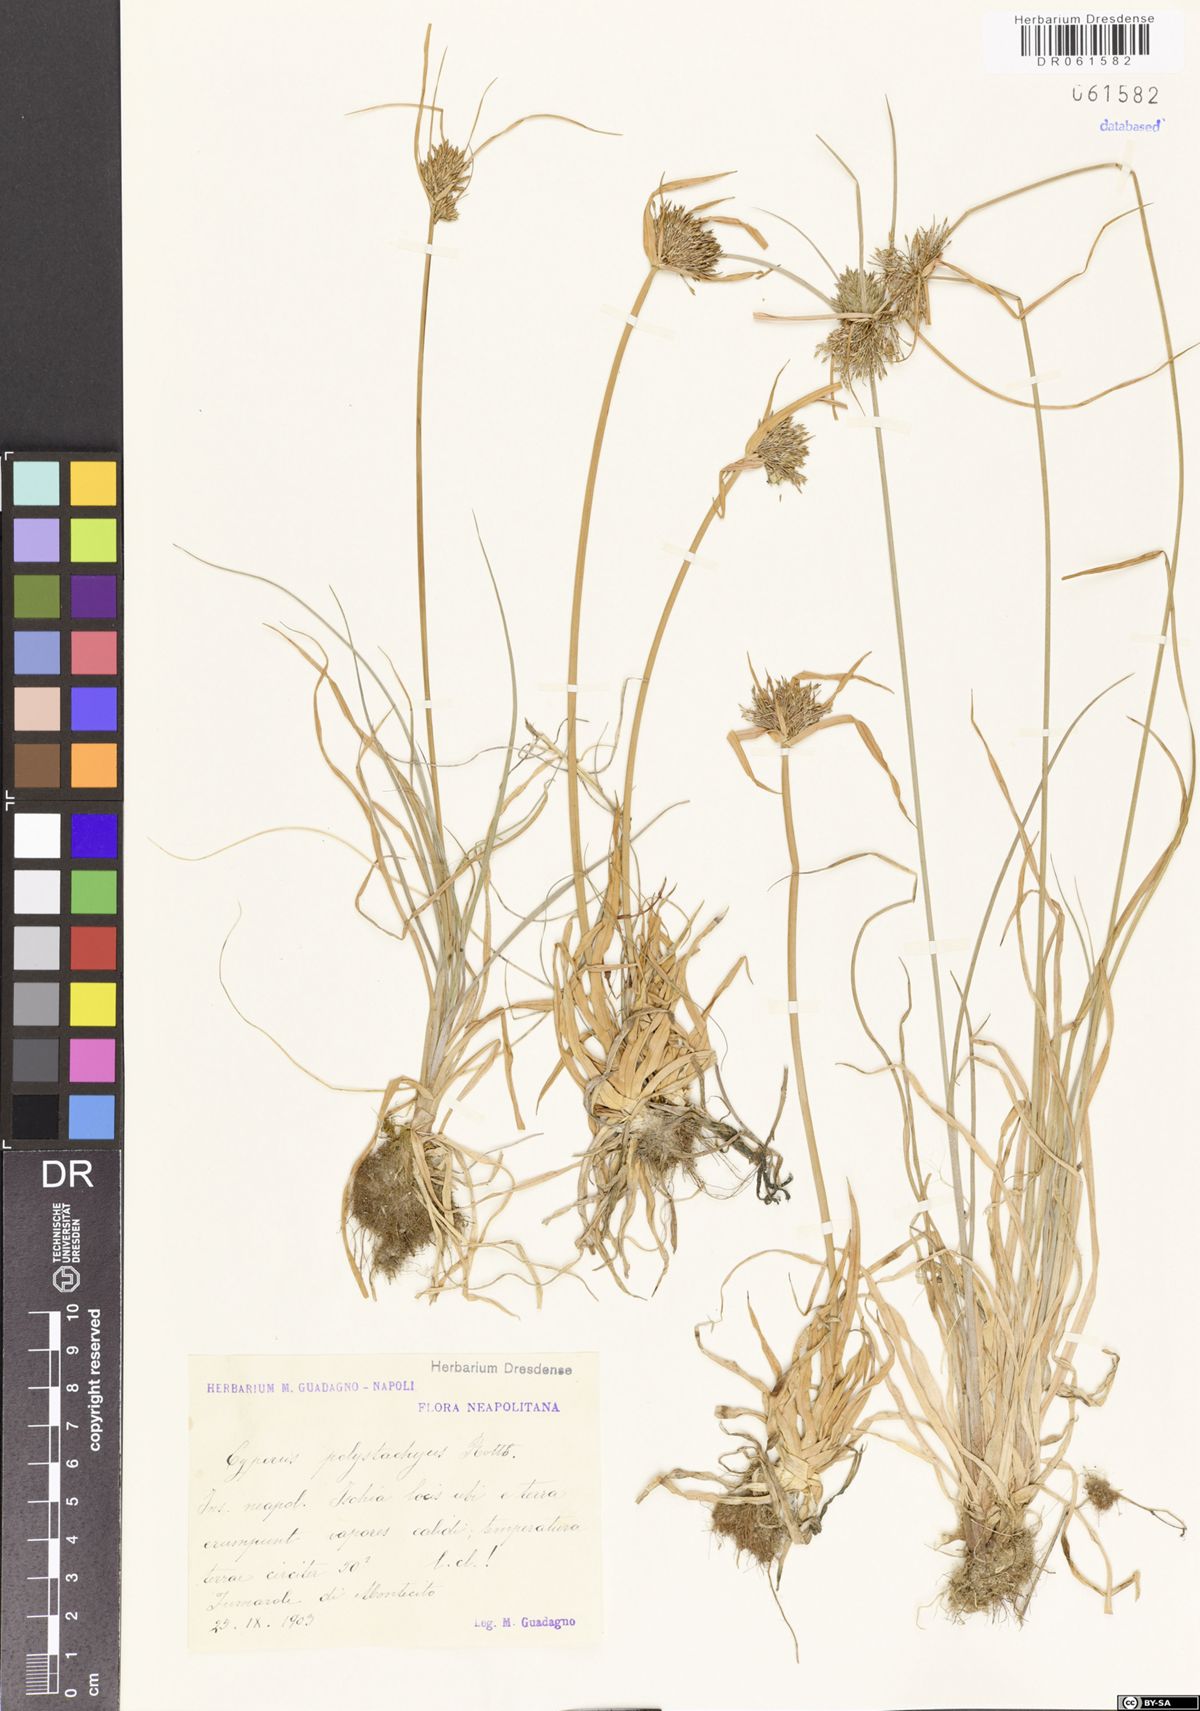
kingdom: Plantae
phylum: Tracheophyta
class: Liliopsida
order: Poales
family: Cyperaceae
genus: Cyperus
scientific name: Cyperus polystachyos
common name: Bunchy flat sedge
